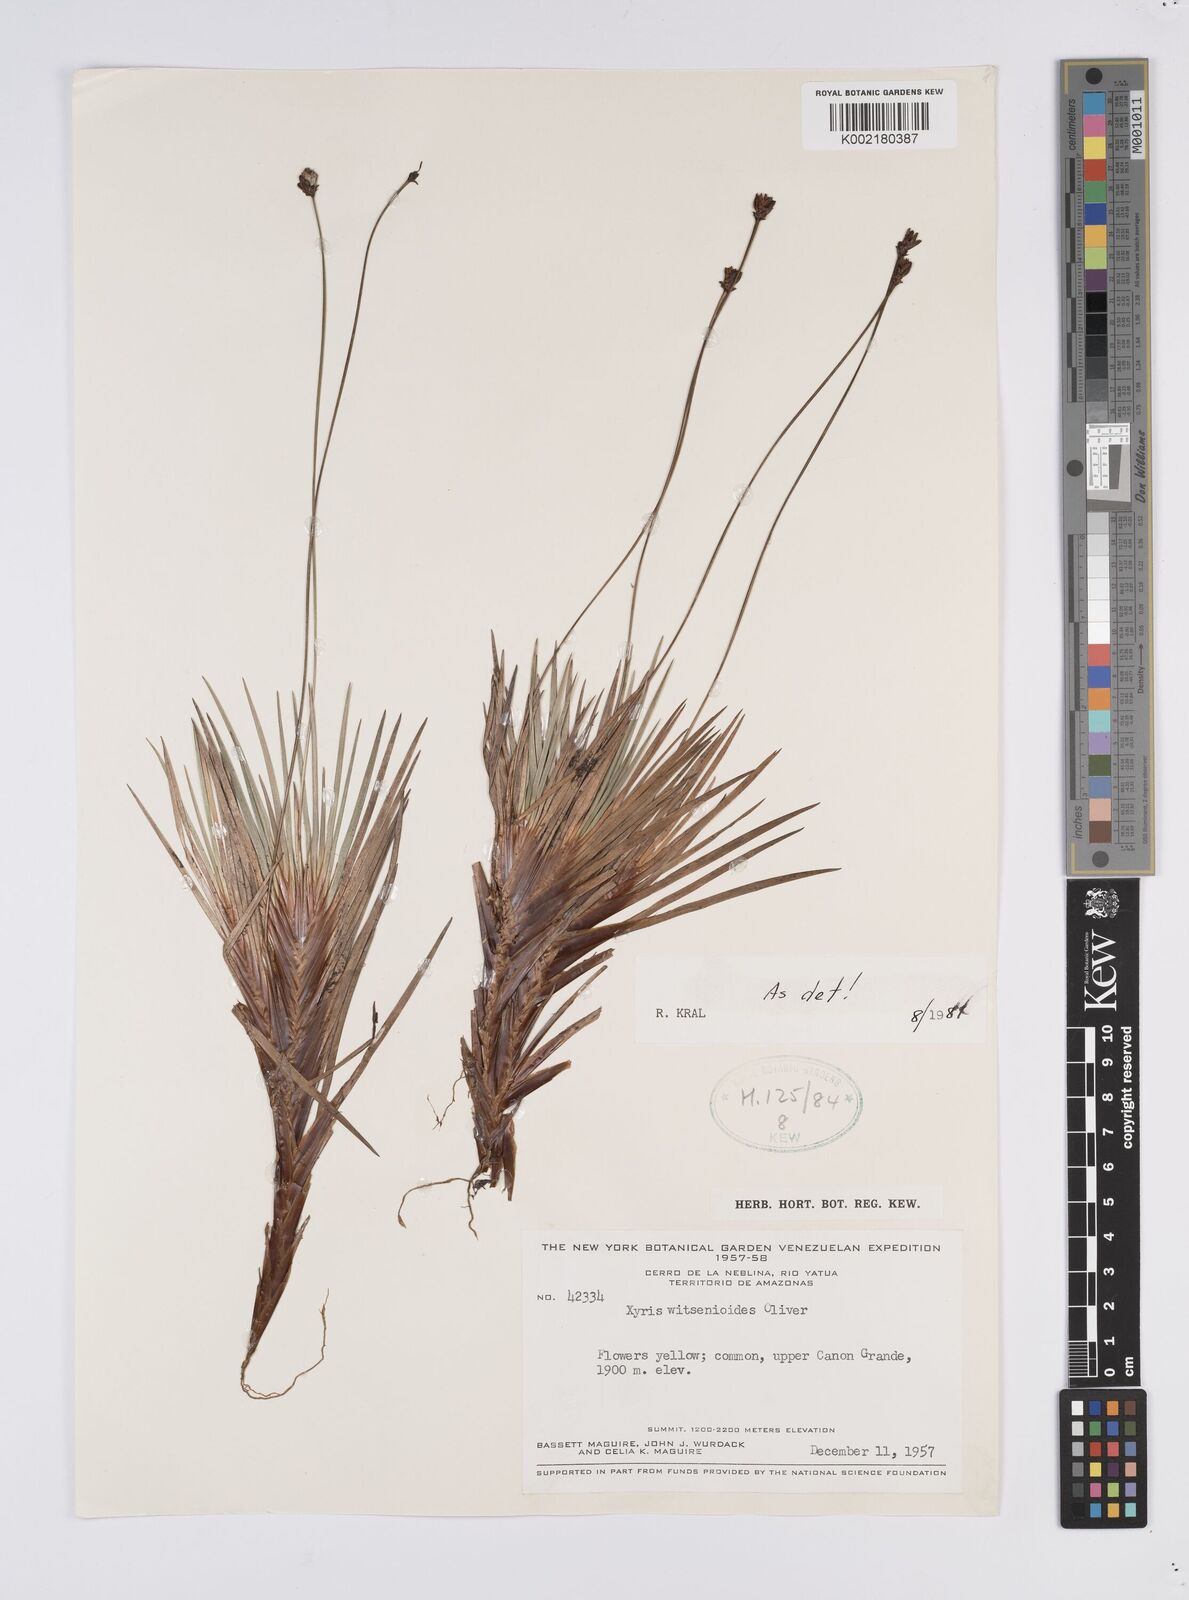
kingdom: Plantae
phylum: Tracheophyta
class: Liliopsida
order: Poales
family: Xyridaceae
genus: Xyris
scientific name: Xyris witsenioides
